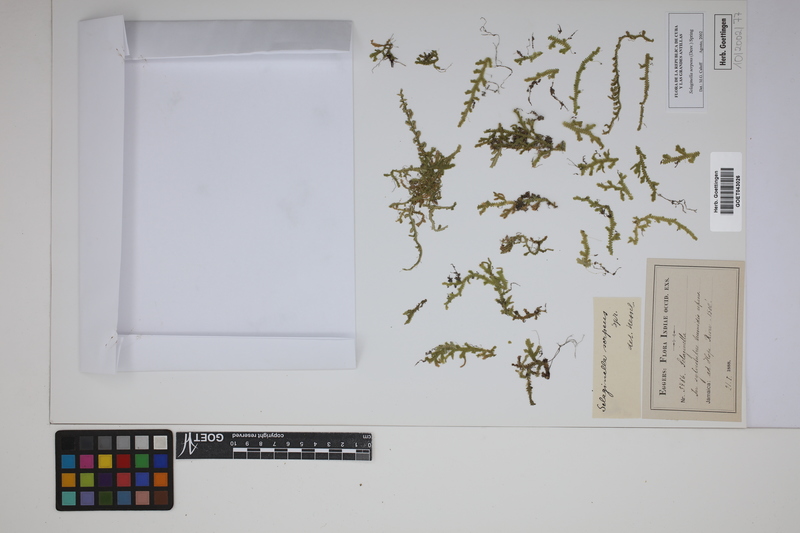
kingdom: Plantae
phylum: Tracheophyta
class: Lycopodiopsida
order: Selaginellales
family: Selaginellaceae
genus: Selaginella
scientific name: Selaginella serpens
